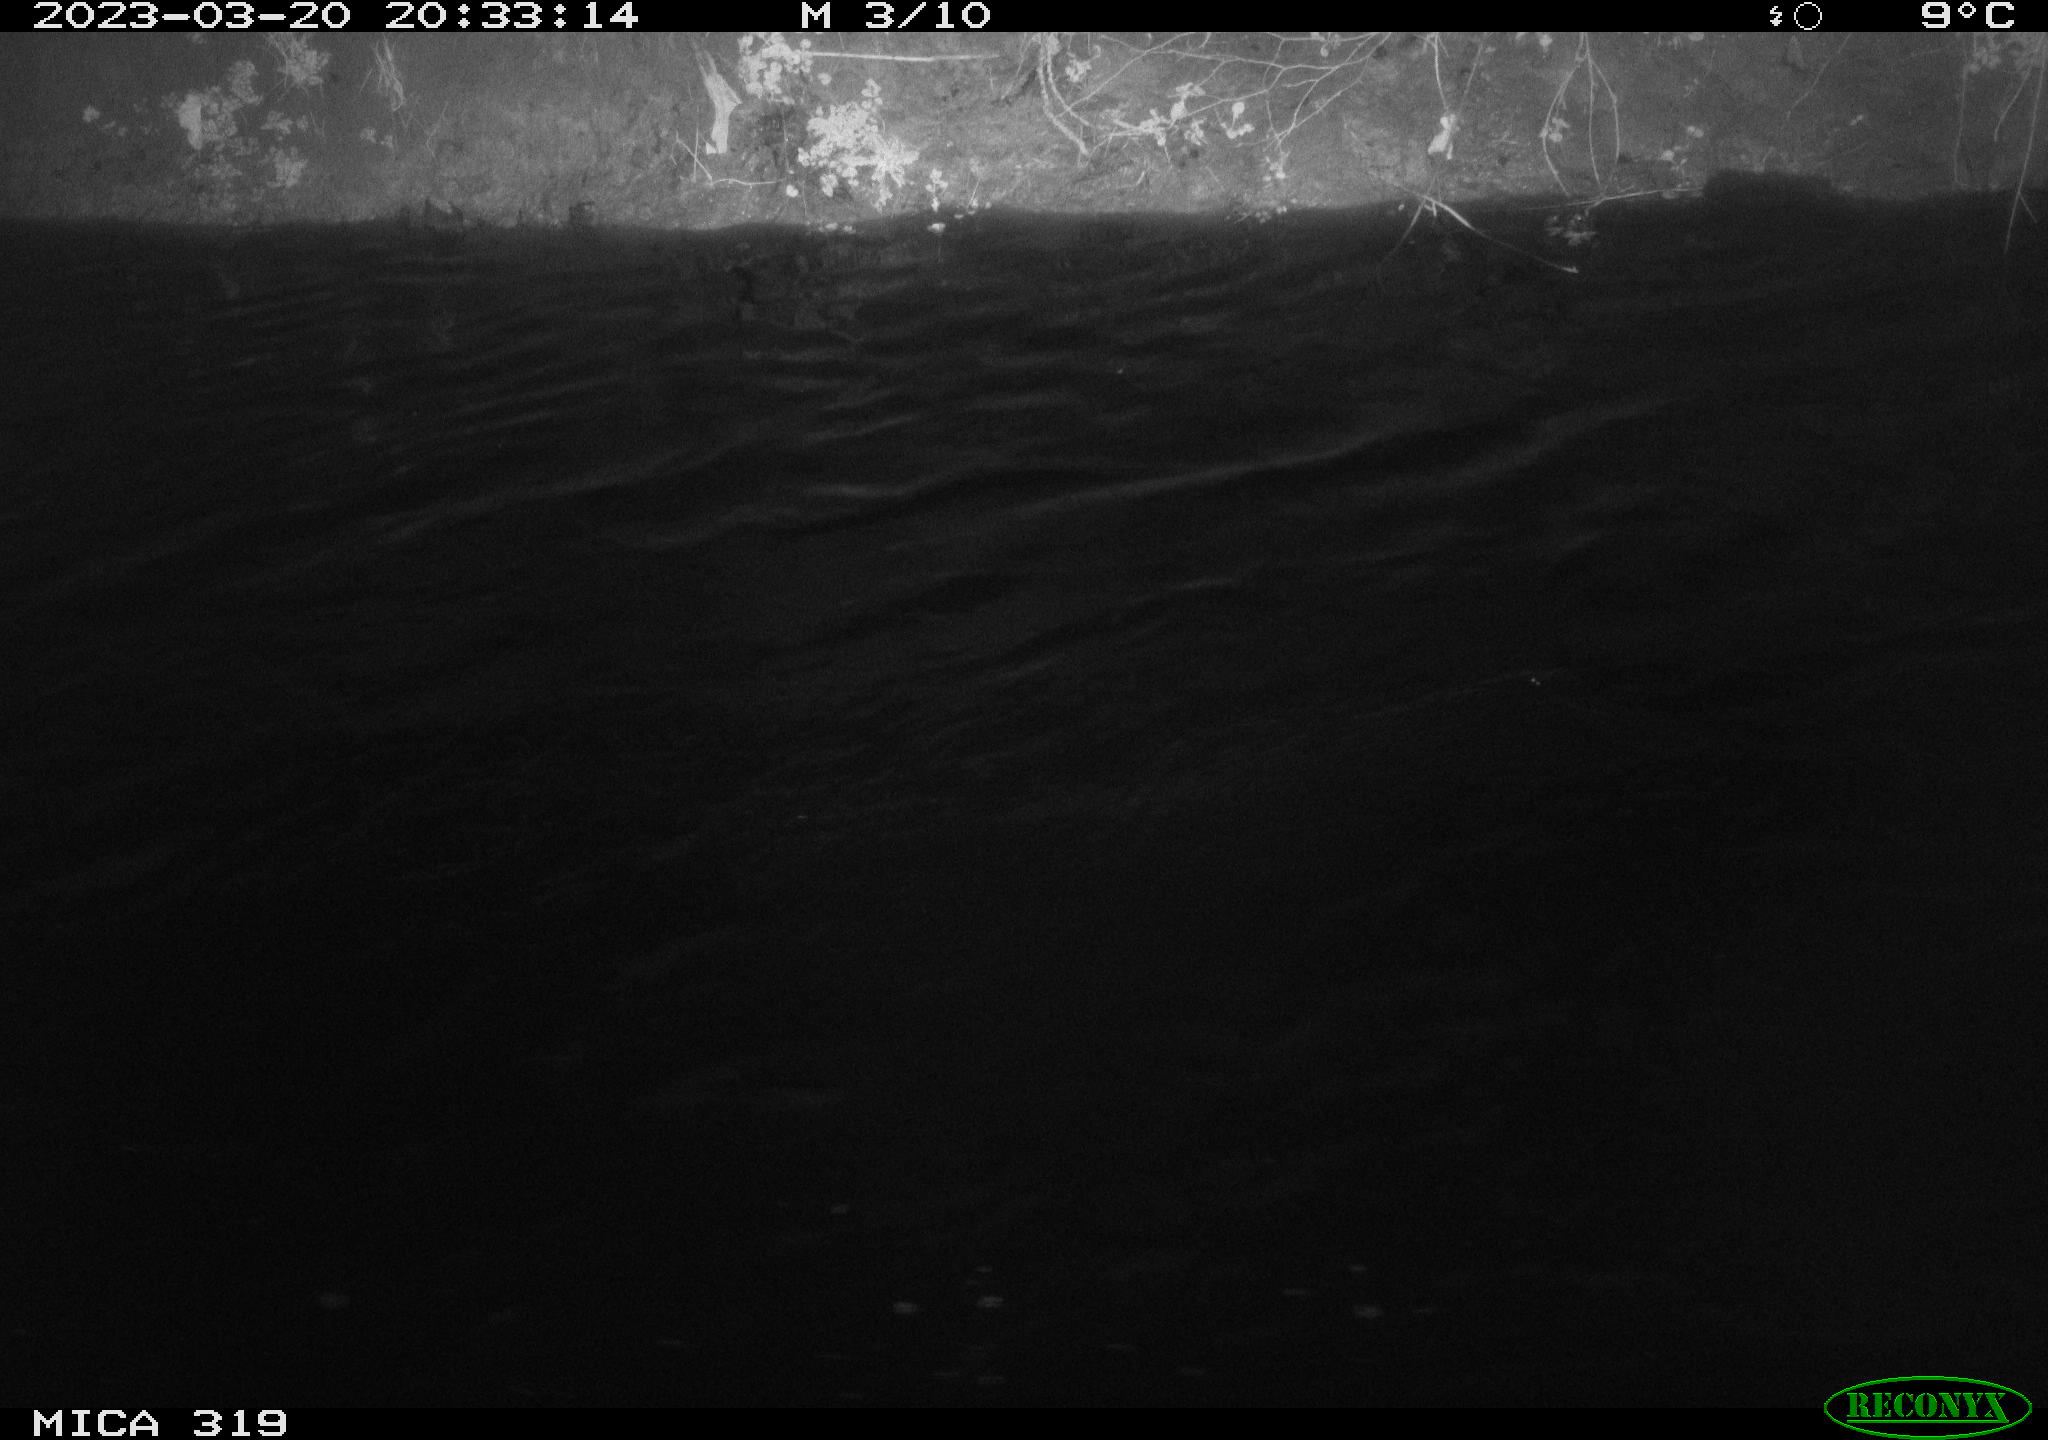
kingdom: Animalia
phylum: Chordata
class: Aves
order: Anseriformes
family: Anatidae
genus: Anas
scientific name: Anas
